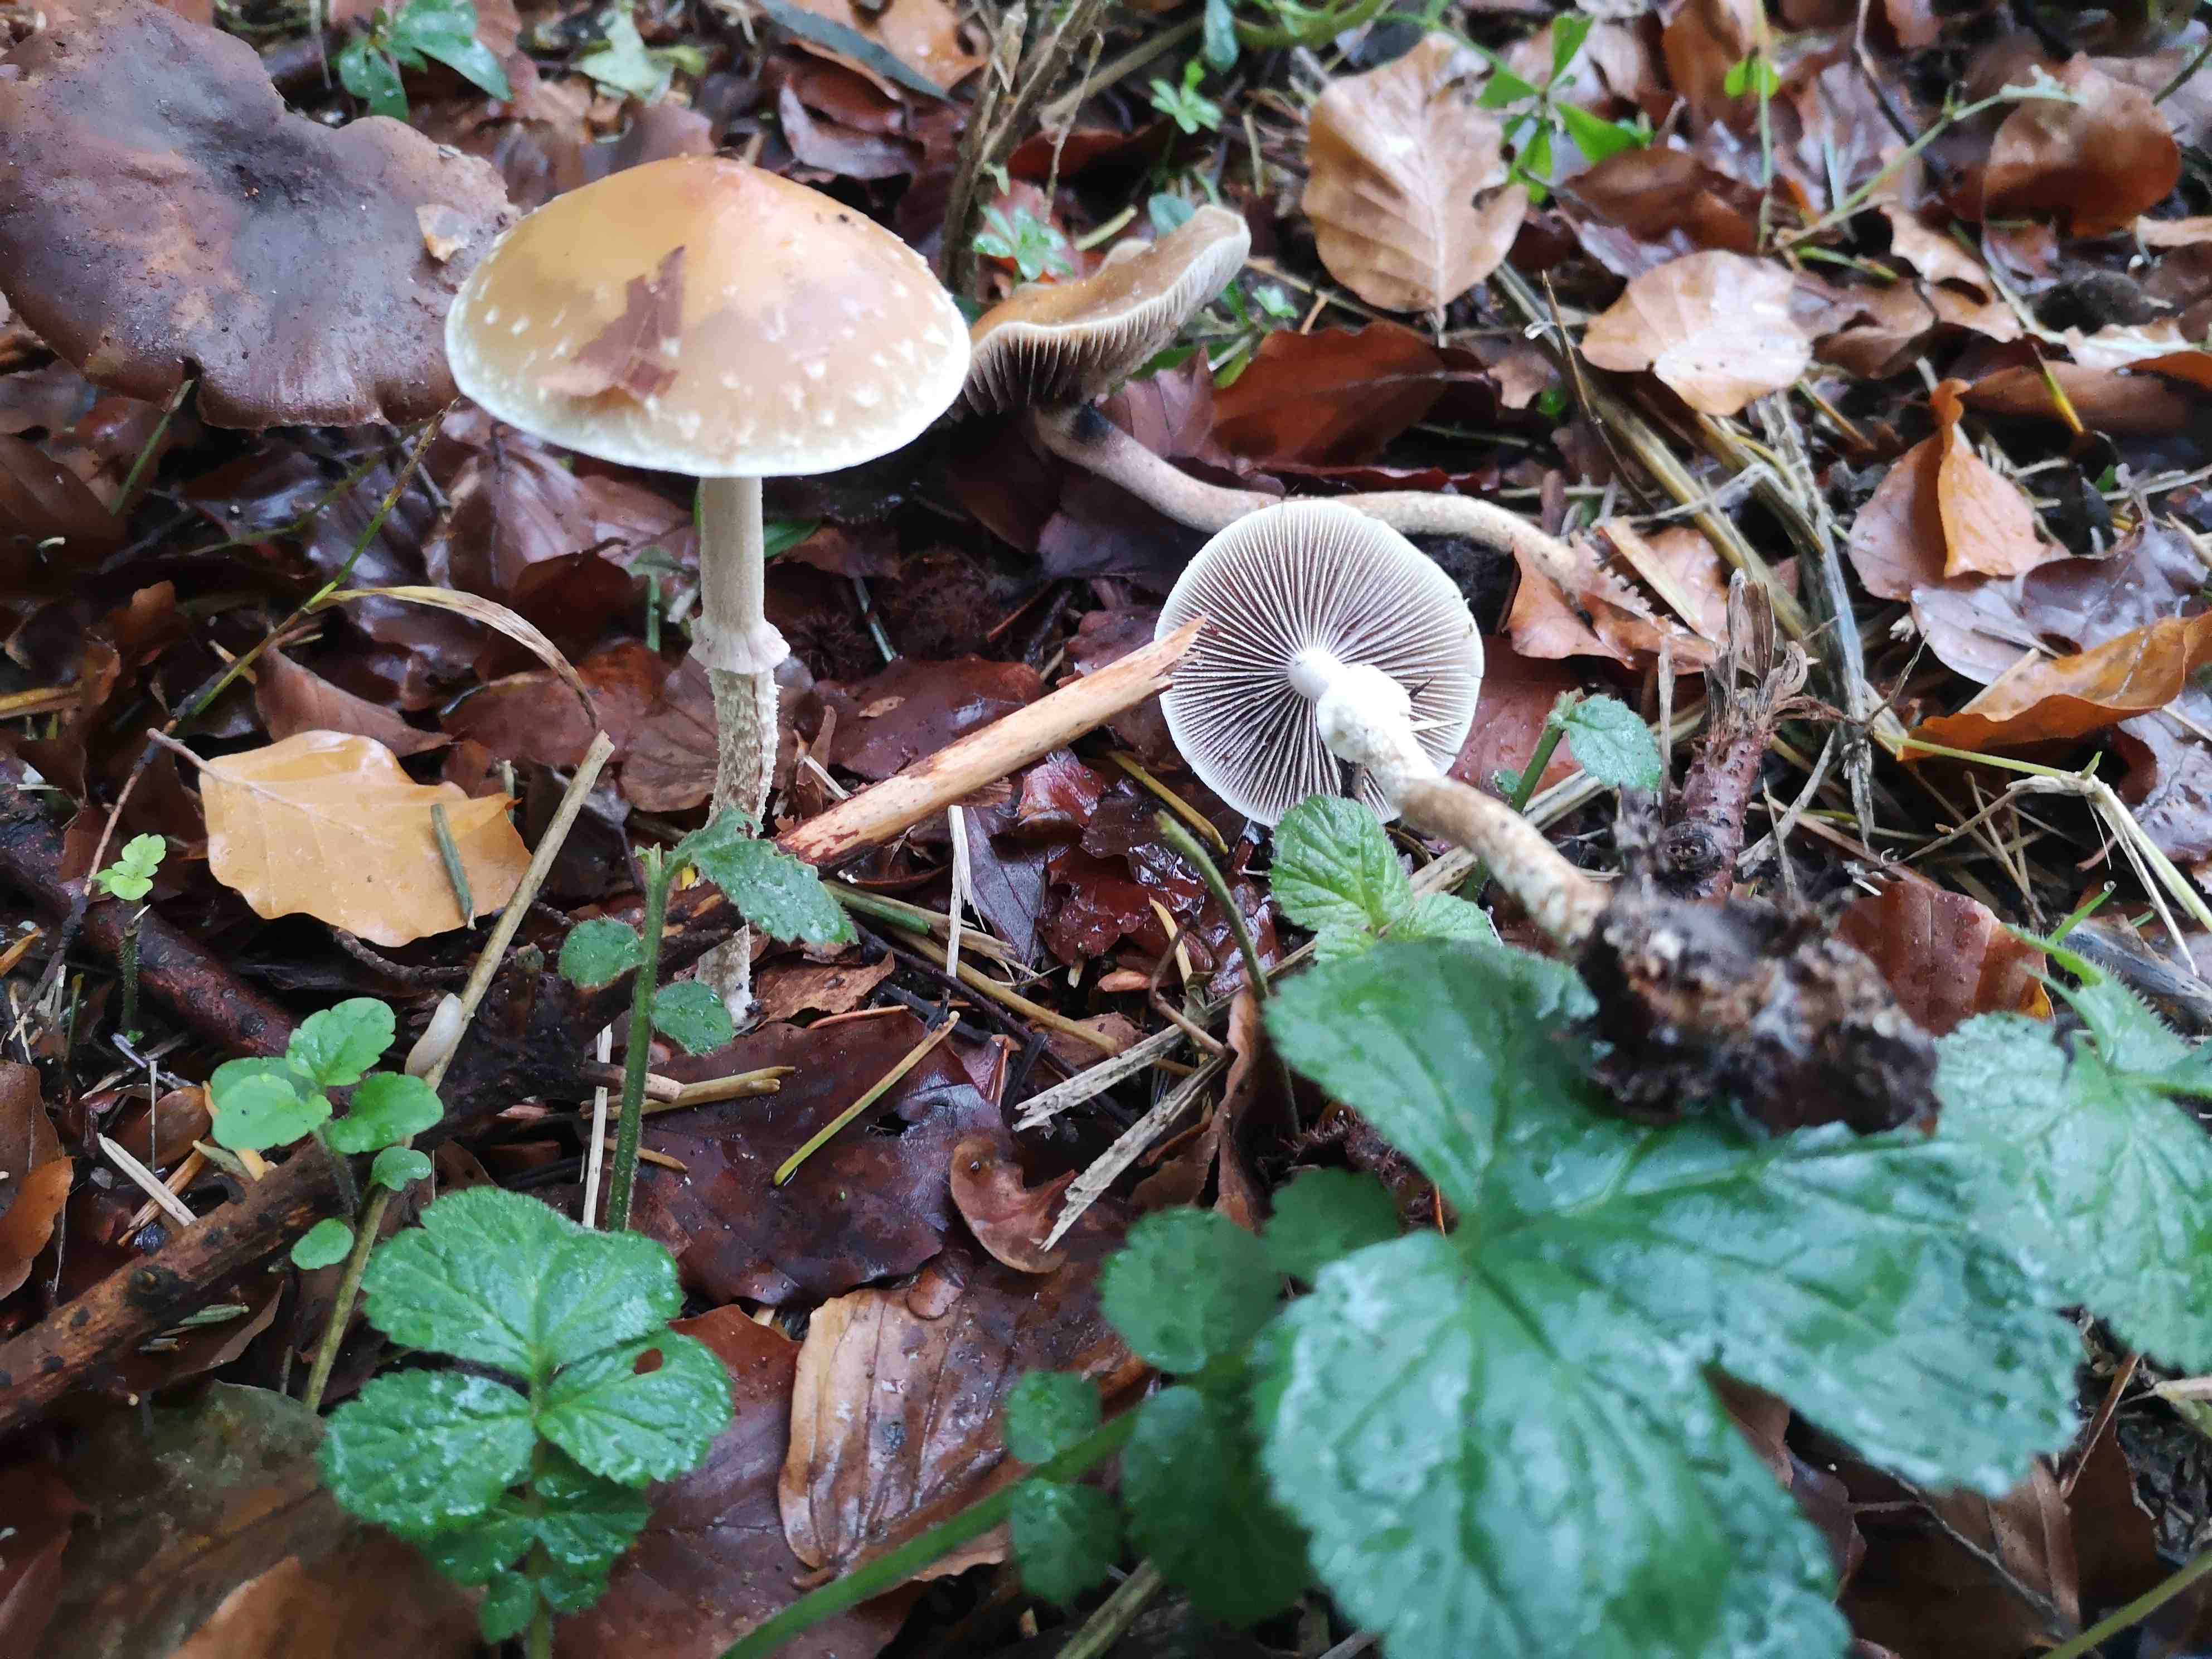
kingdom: Fungi
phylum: Basidiomycota
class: Agaricomycetes
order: Agaricales
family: Strophariaceae
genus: Leratiomyces
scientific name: Leratiomyces squamosus
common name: skællet bredblad
